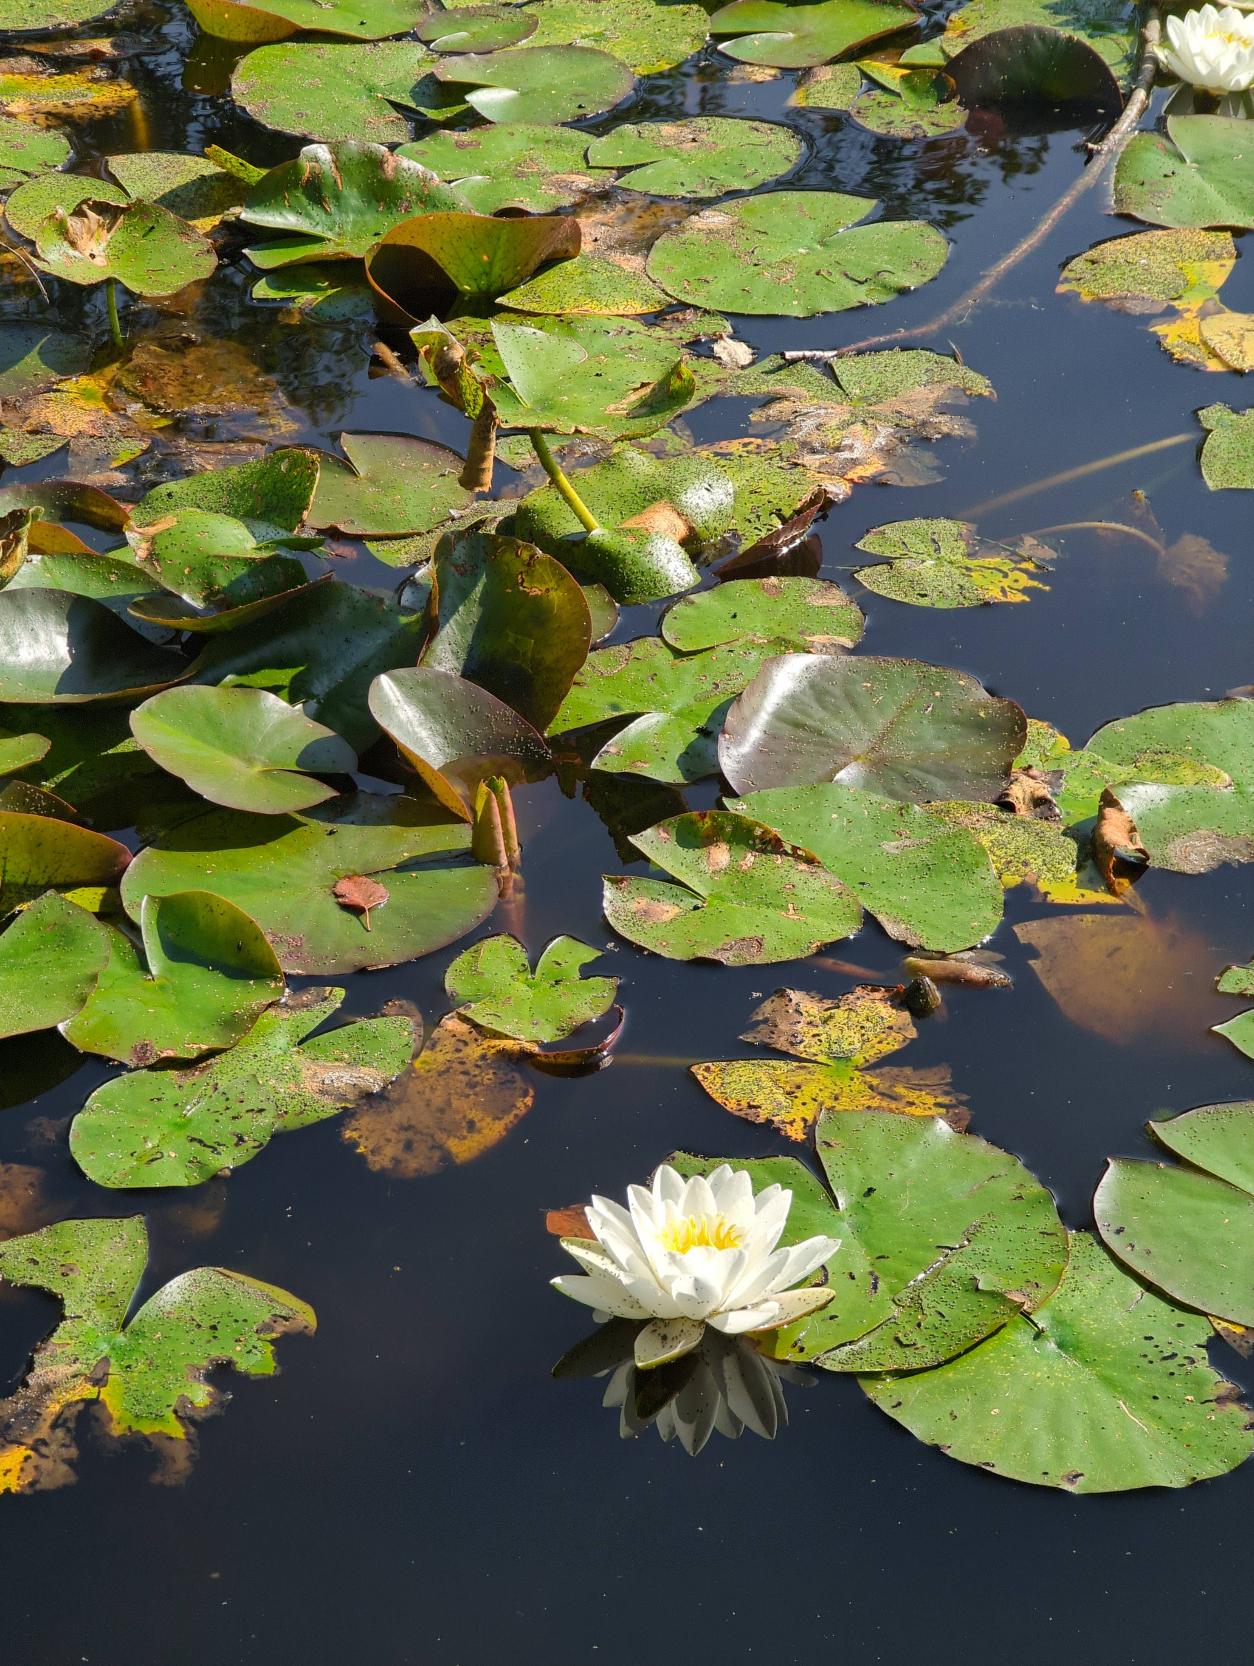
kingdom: Plantae
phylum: Tracheophyta
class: Magnoliopsida
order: Nymphaeales
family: Nymphaeaceae
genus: Nymphaea
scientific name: Nymphaea alba
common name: Hvid åkande
